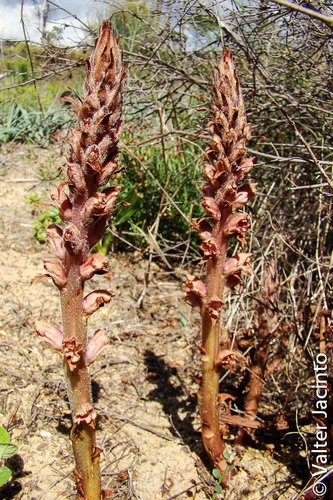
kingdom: Plantae
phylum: Tracheophyta
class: Magnoliopsida
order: Lamiales
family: Orobanchaceae
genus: Orobanche
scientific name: Orobanche rapum-genistae
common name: Greater broomrape
